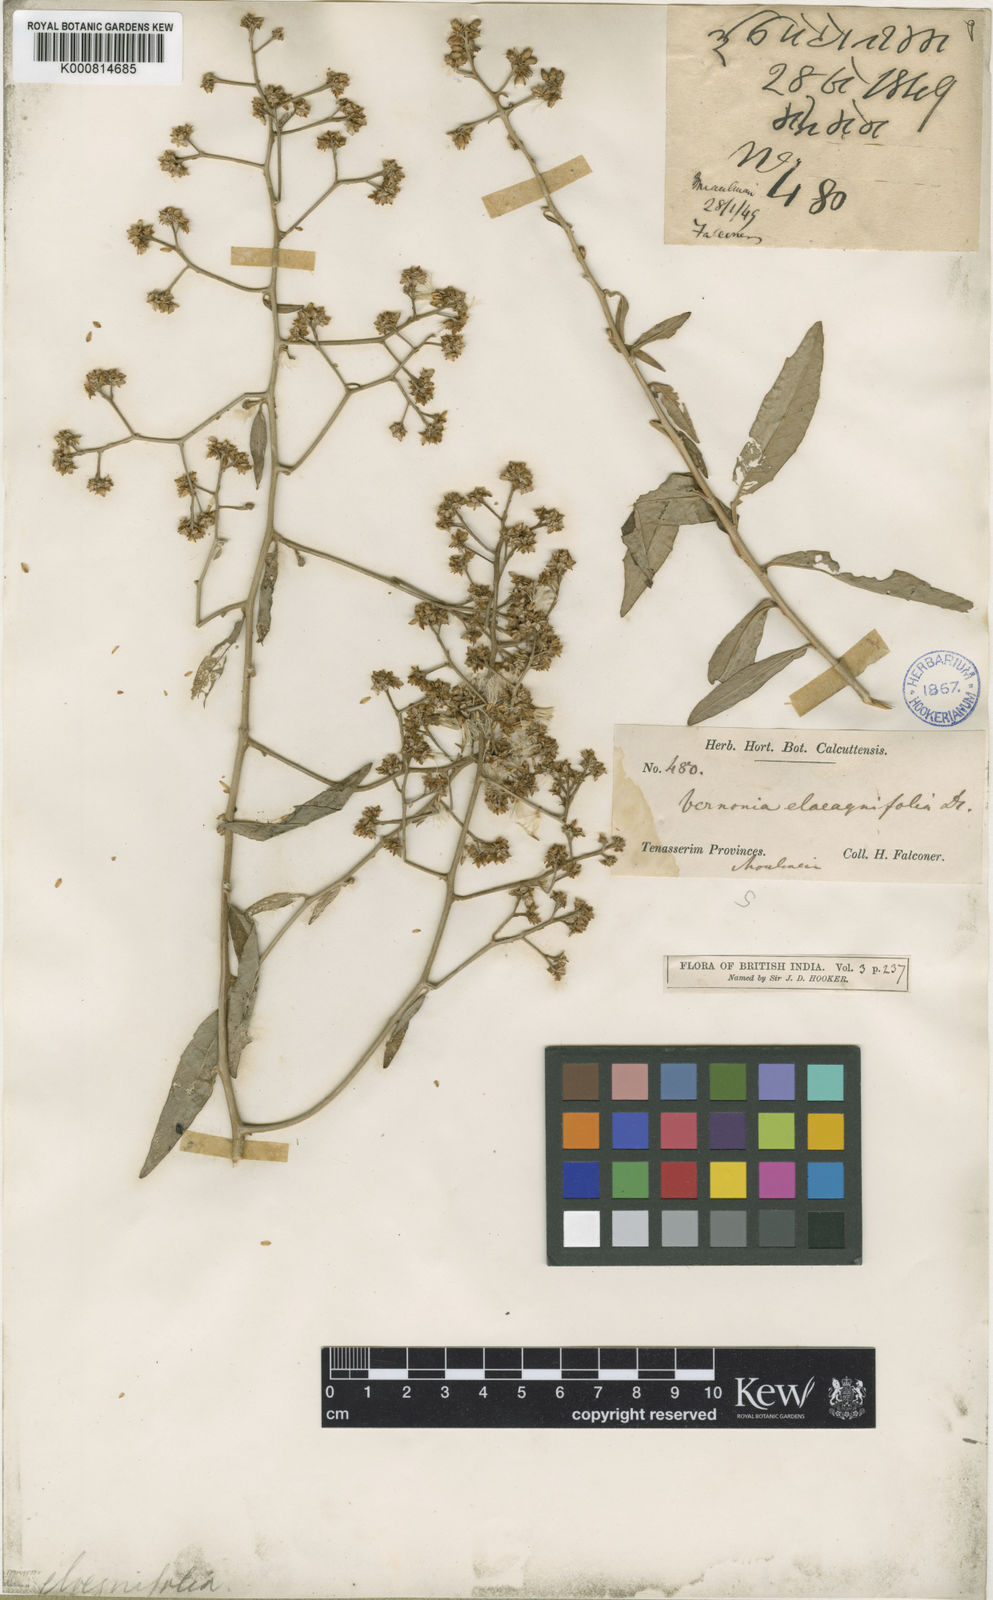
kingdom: Plantae
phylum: Tracheophyta
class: Magnoliopsida
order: Asterales
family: Asteraceae
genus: Tarlmounia
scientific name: Tarlmounia elliptica
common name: Kheua sa lot
